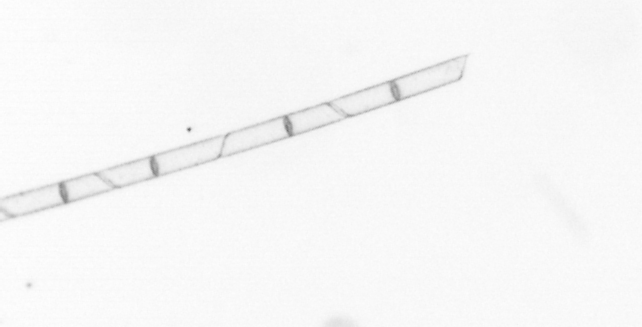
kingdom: Chromista
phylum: Ochrophyta
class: Bacillariophyceae
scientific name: Bacillariophyceae
